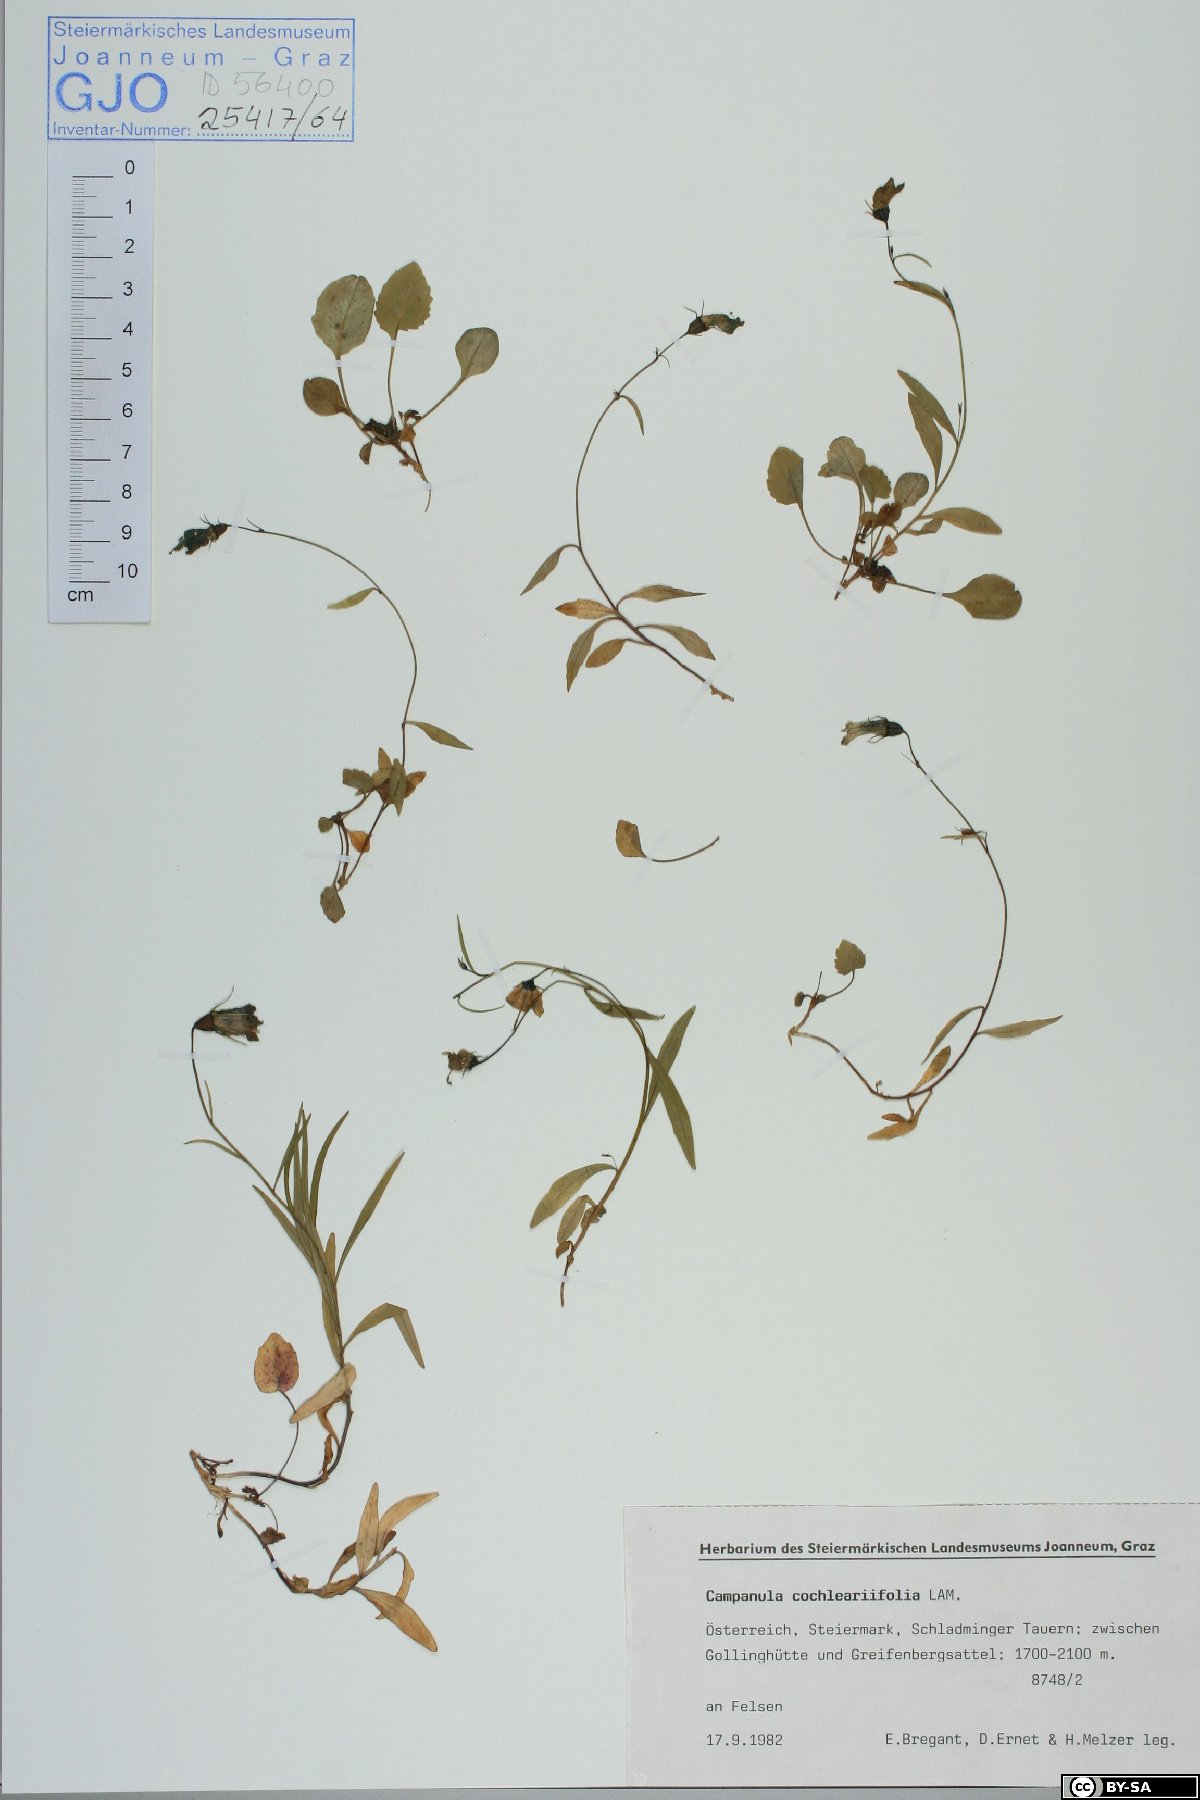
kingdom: Plantae
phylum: Tracheophyta
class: Magnoliopsida
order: Asterales
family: Campanulaceae
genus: Campanula
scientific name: Campanula cochleariifolia
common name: Fairies'-thimbles
